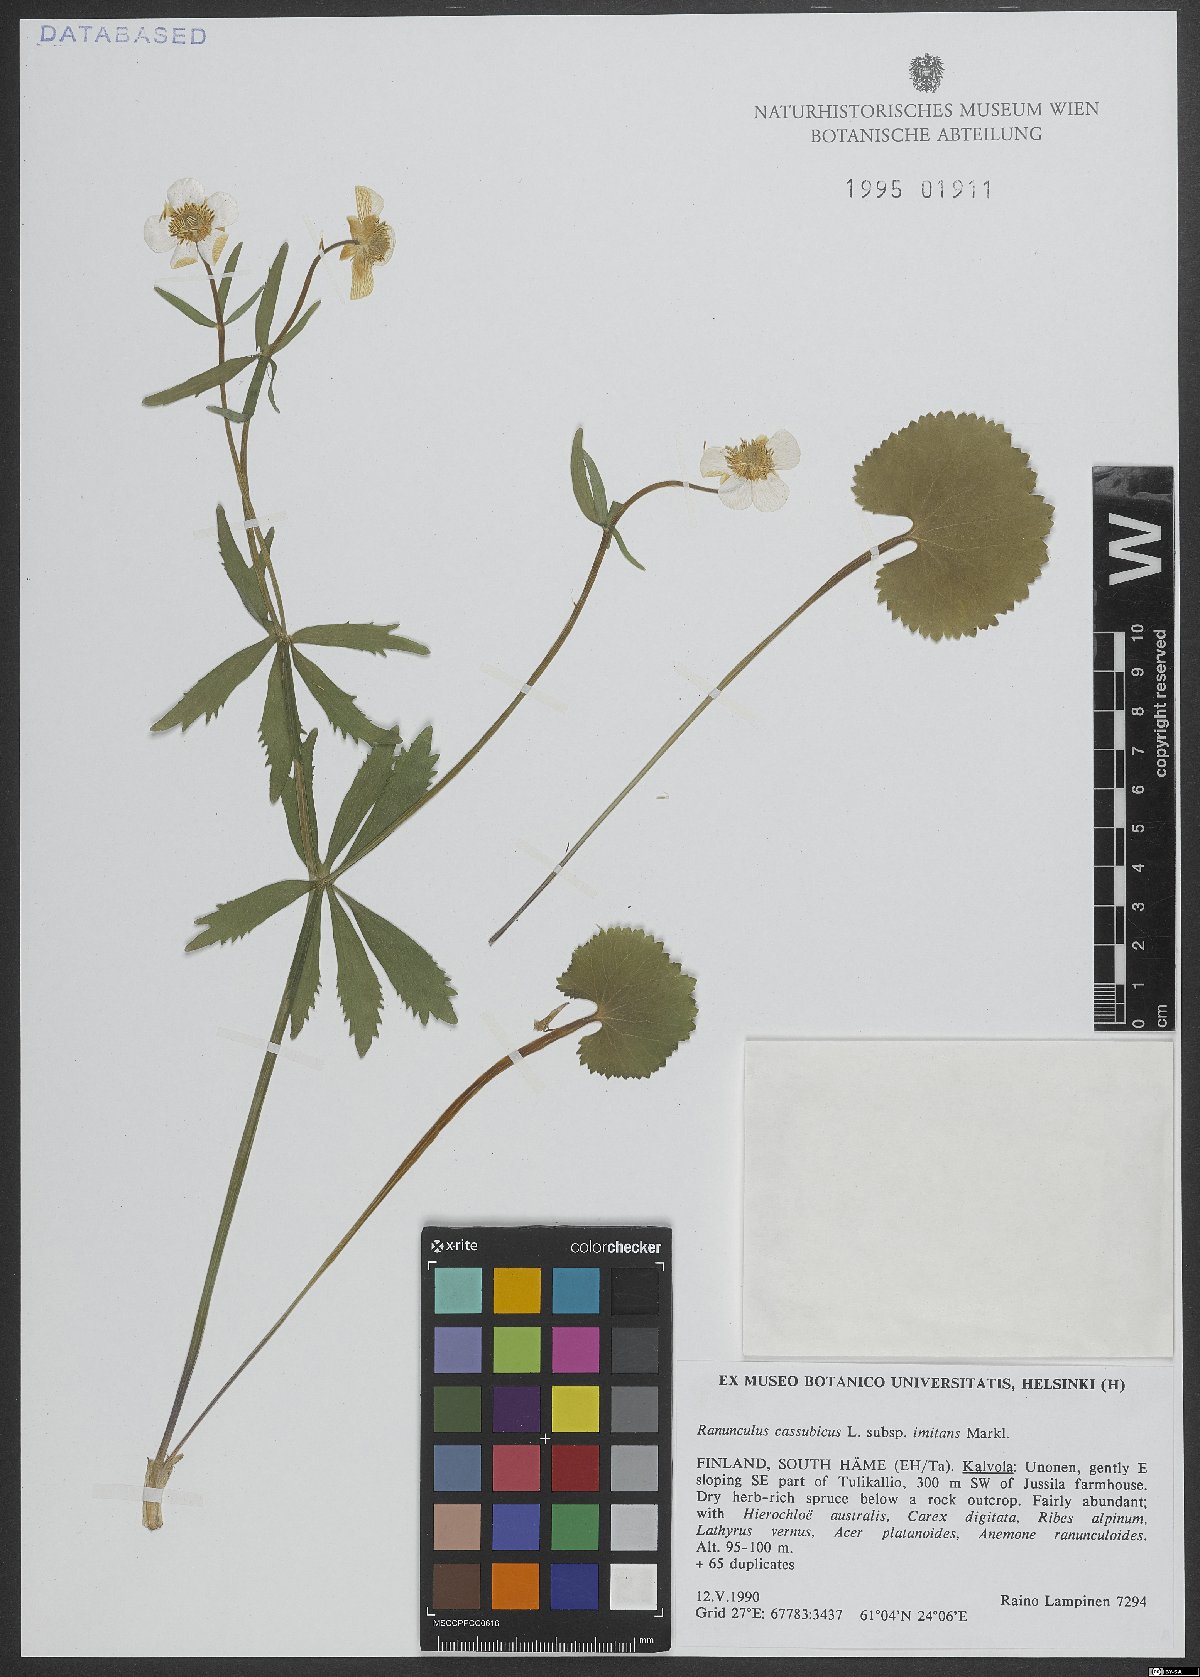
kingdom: Plantae
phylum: Tracheophyta
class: Magnoliopsida
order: Ranunculales
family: Ranunculaceae
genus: Ranunculus
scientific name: Ranunculus cassubicus
